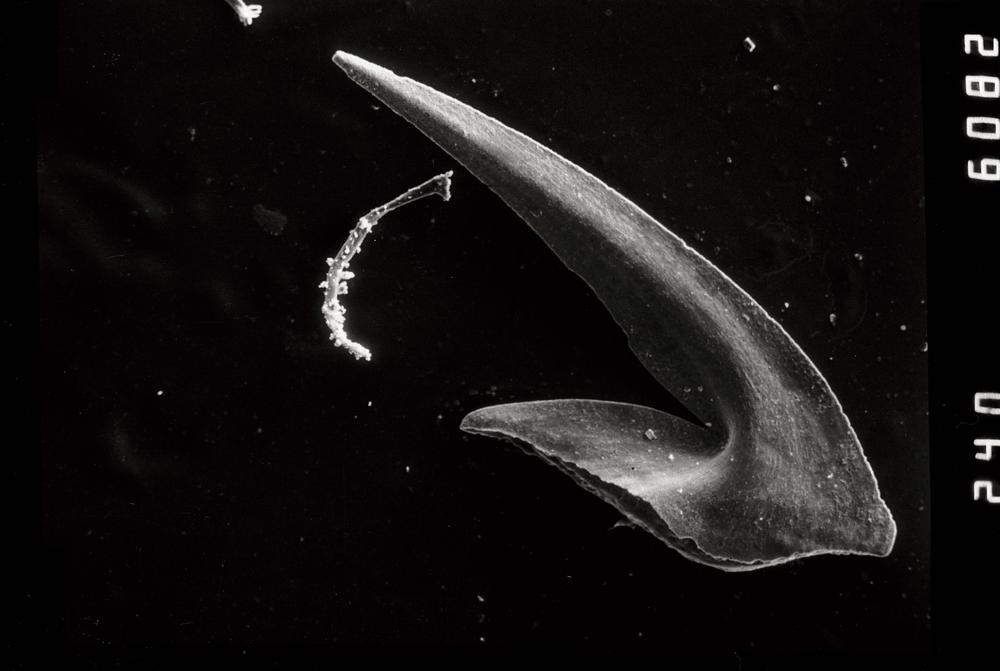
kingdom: Animalia
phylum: Chordata
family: Oistodontidae
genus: Oistodus
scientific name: Oistodus lanceolatus
